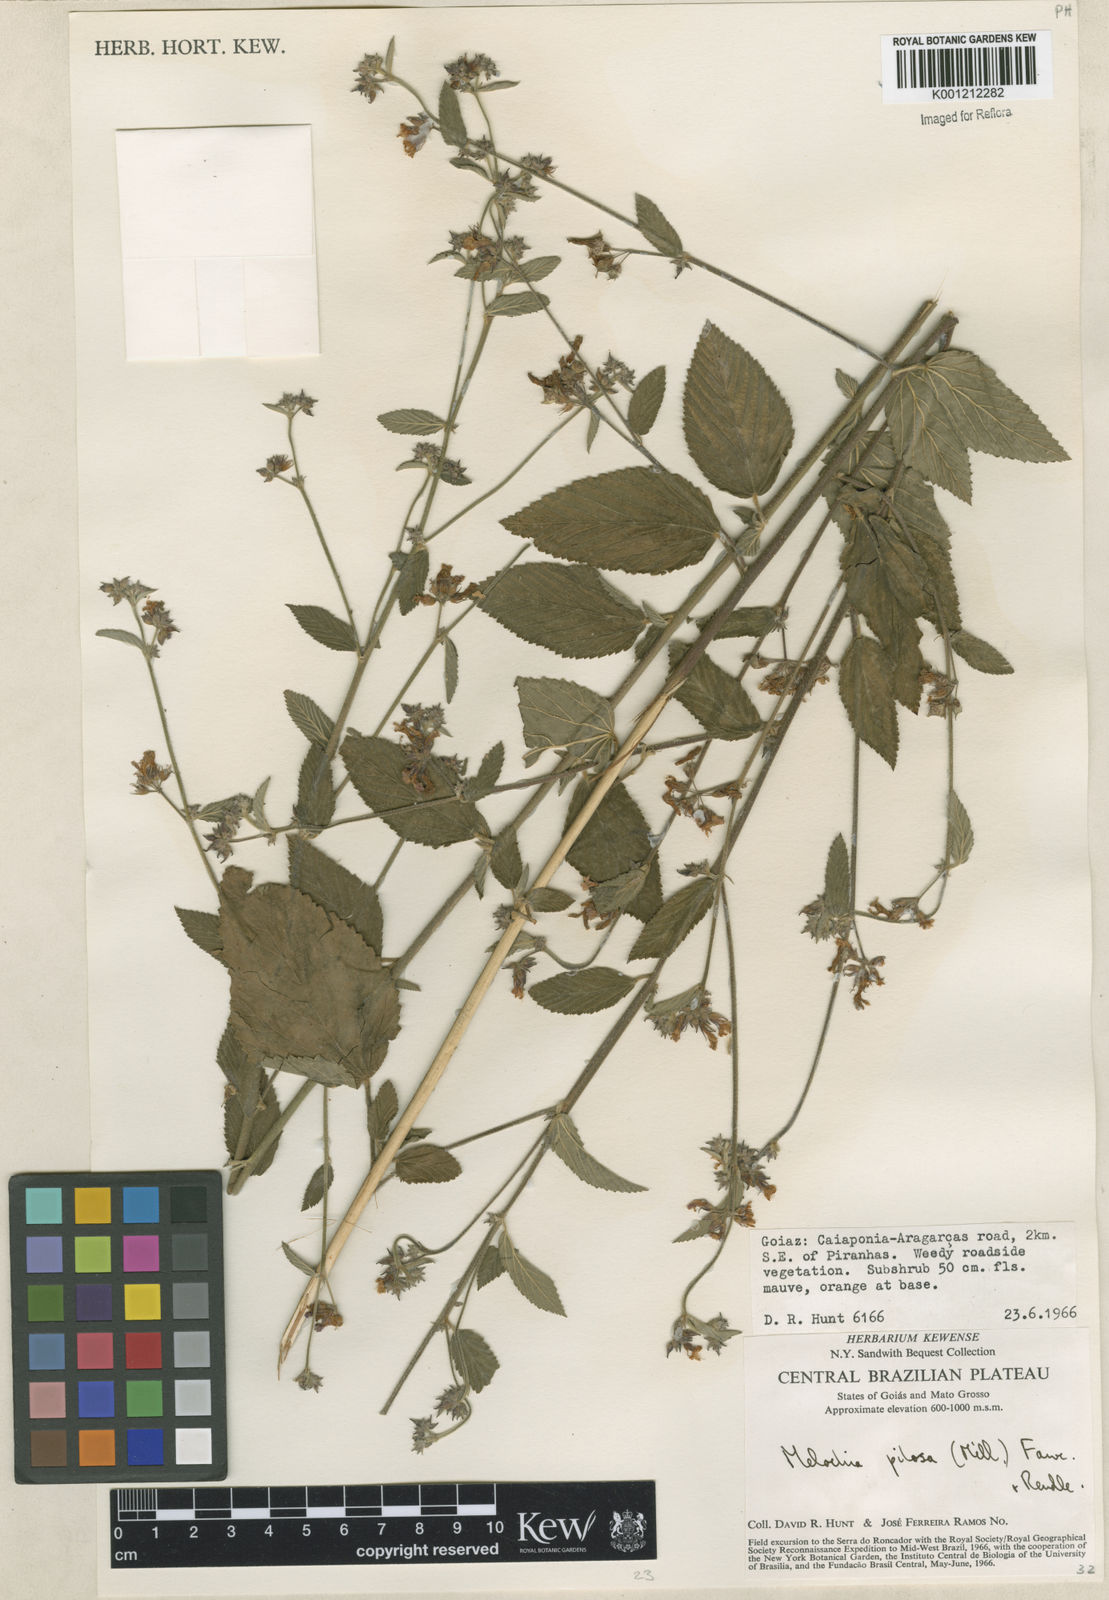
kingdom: Plantae
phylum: Tracheophyta
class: Magnoliopsida
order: Malvales
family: Malvaceae
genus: Melochia
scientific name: Melochia pilosa
